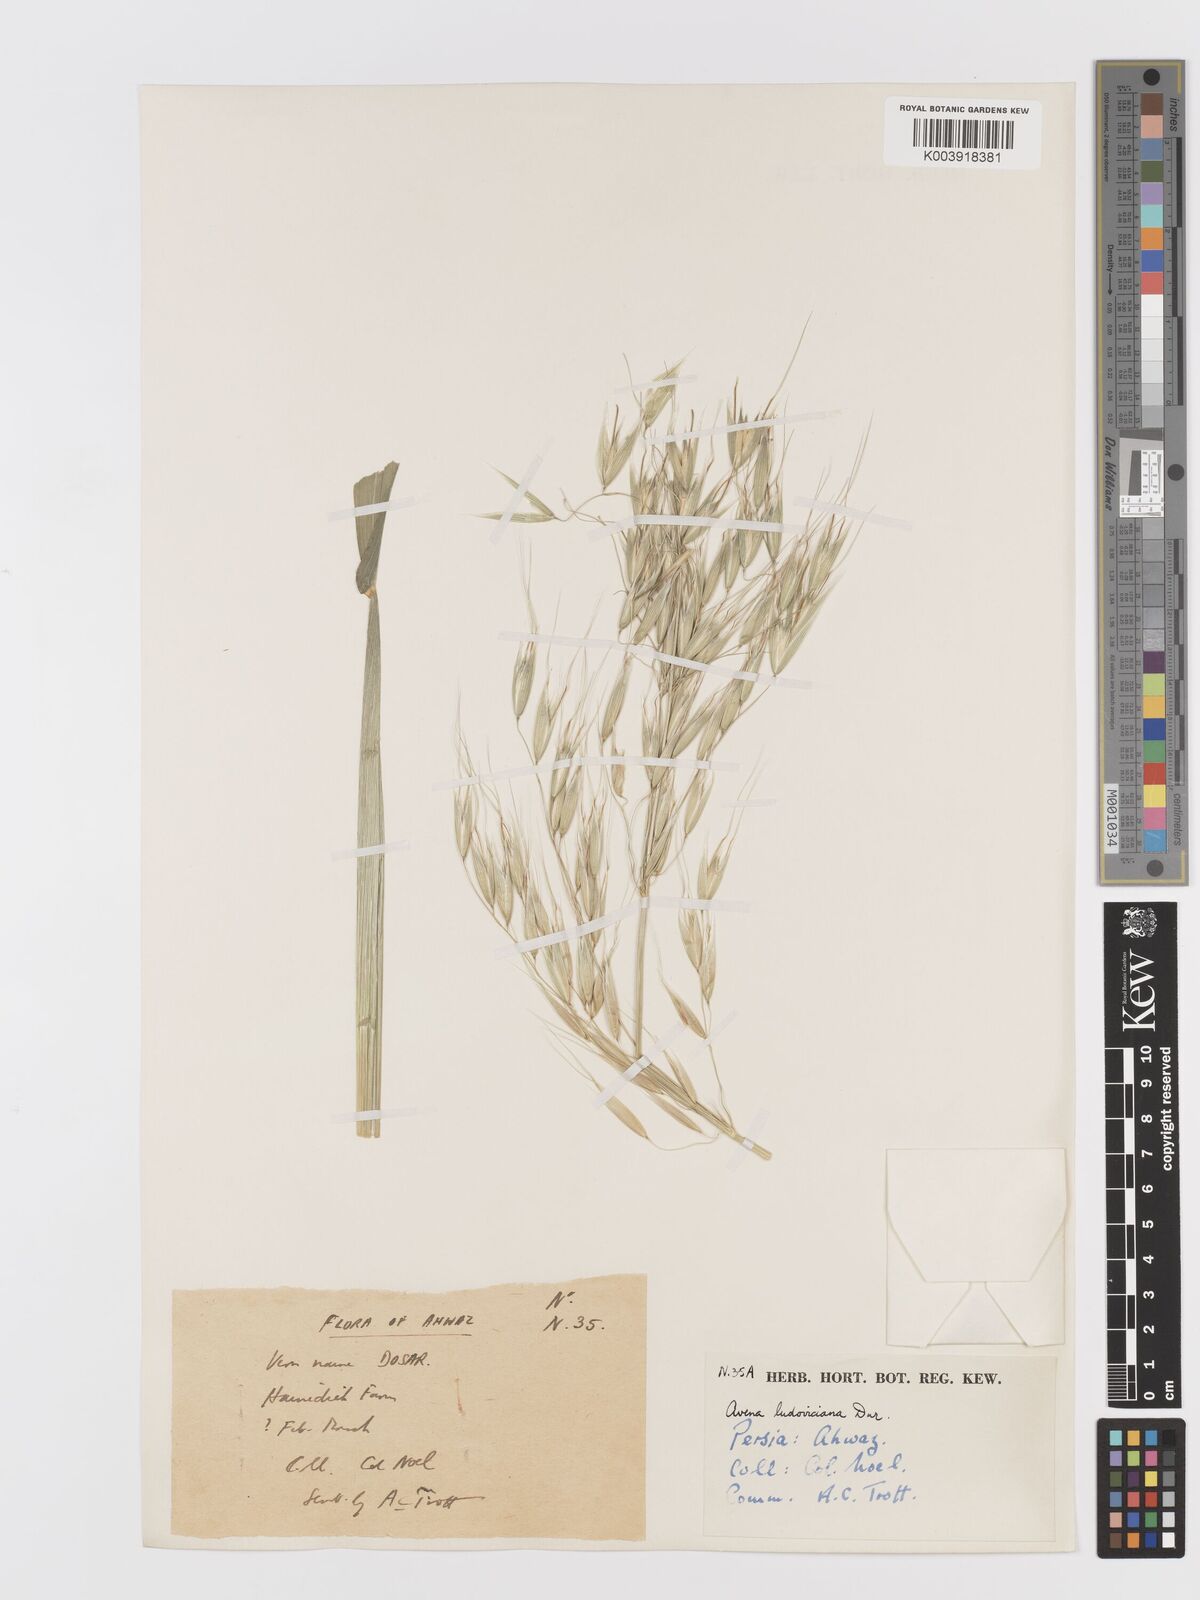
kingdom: Plantae
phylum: Tracheophyta
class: Liliopsida
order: Poales
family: Poaceae
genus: Avena
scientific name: Avena sterilis
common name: Animated oat
